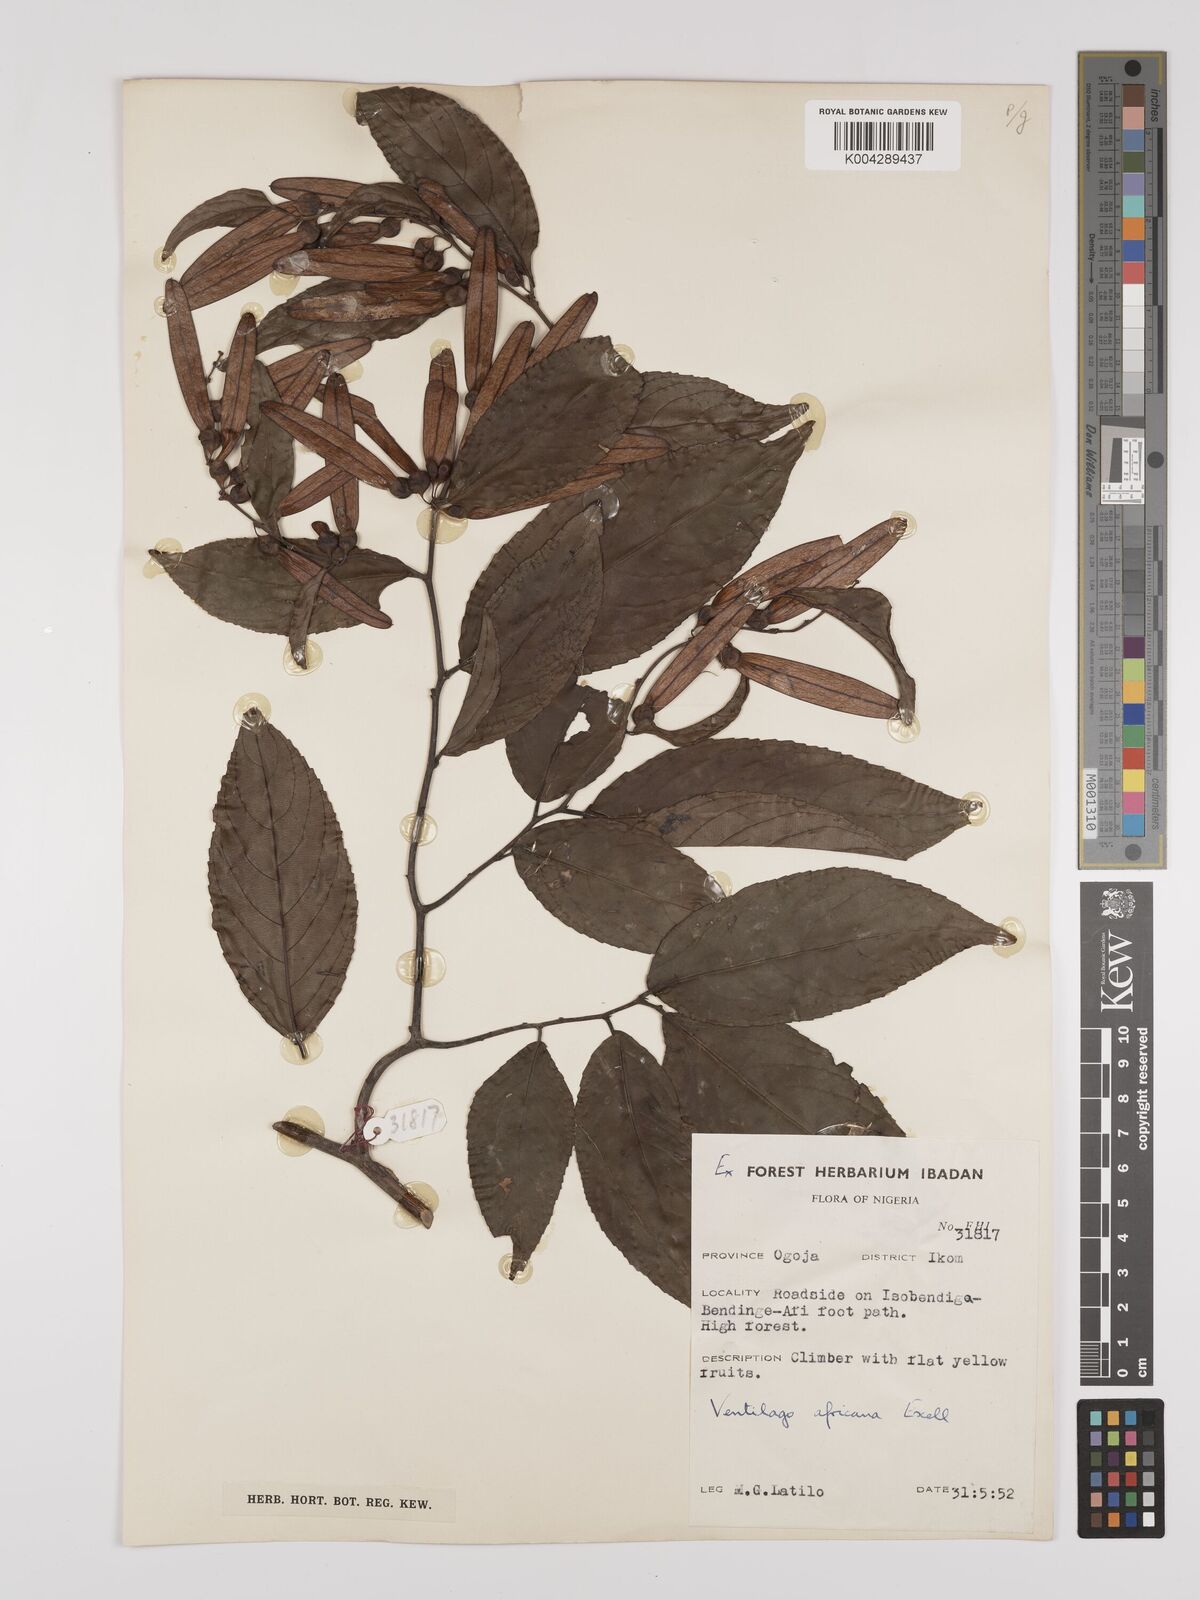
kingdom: Plantae
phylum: Tracheophyta
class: Magnoliopsida
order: Rosales
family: Rhamnaceae
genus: Ventilago
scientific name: Ventilago africana
